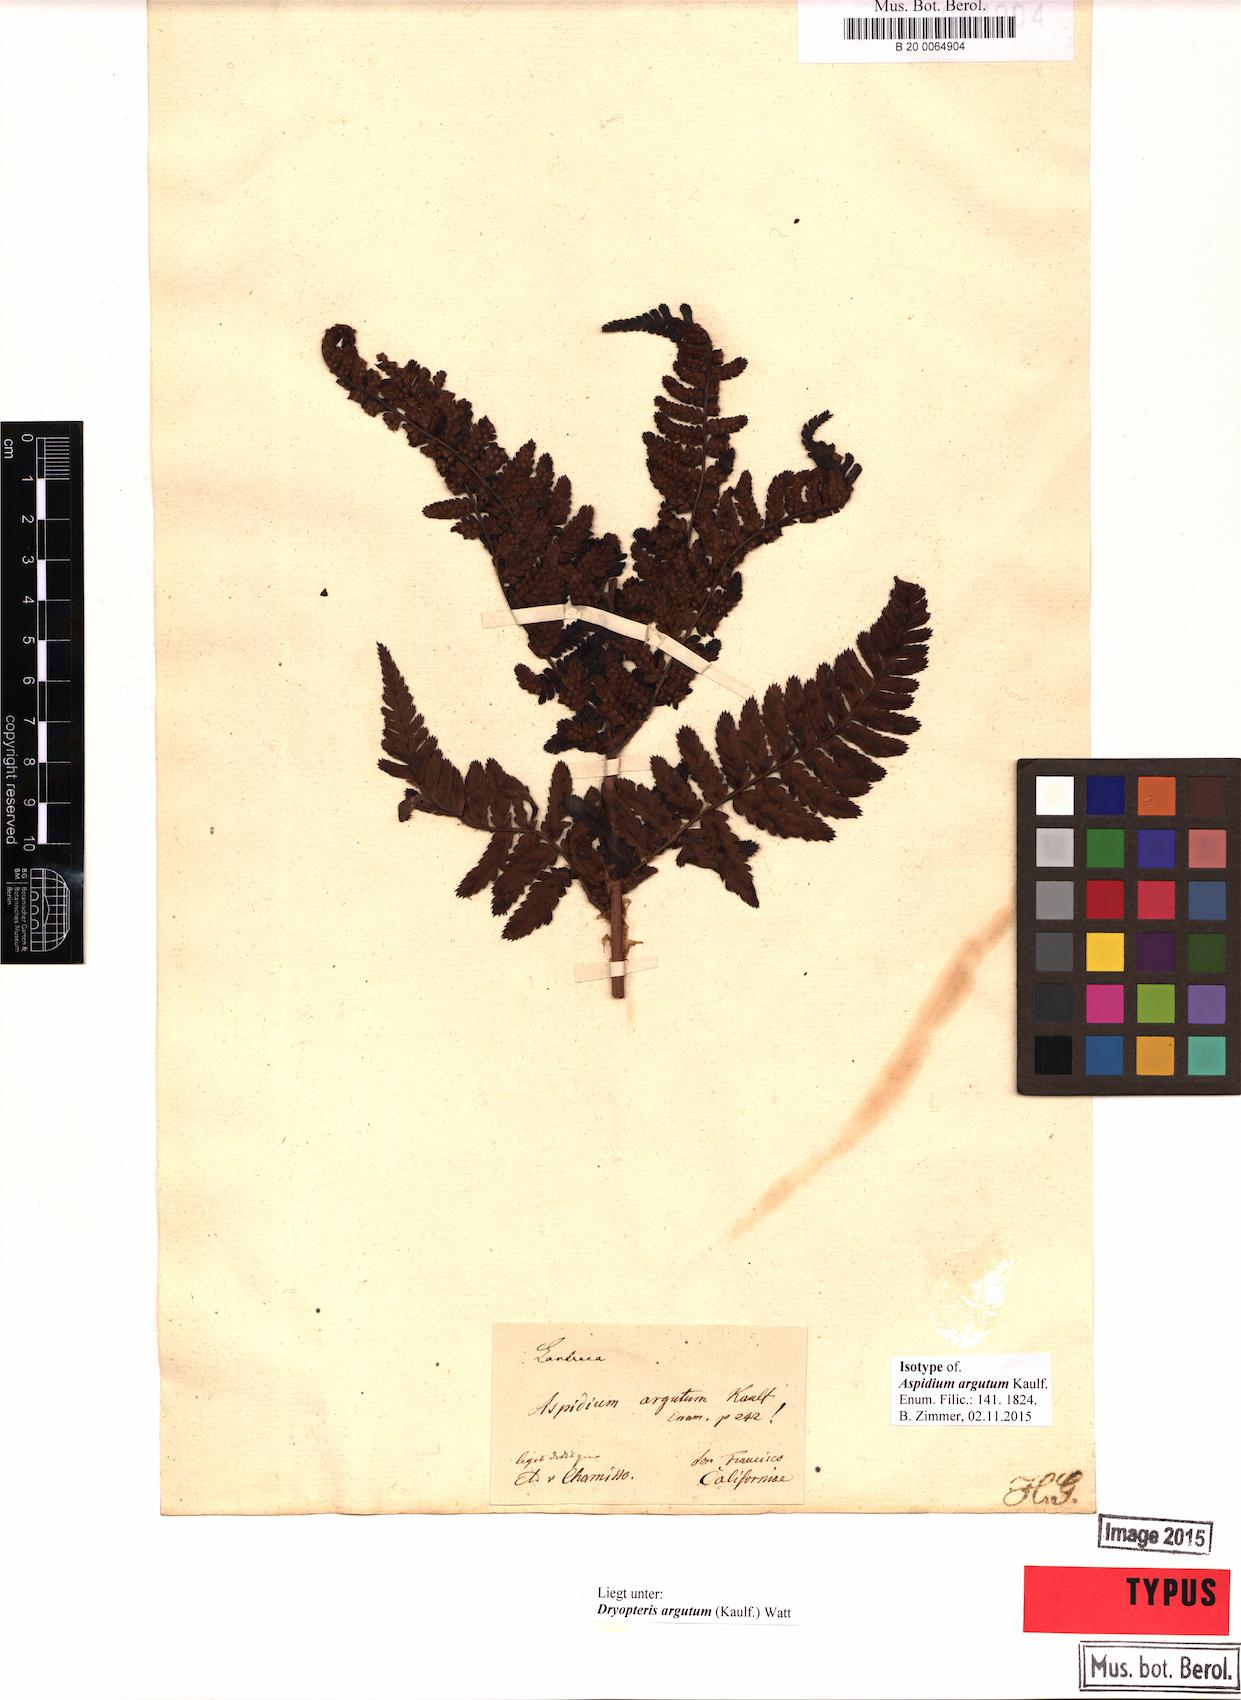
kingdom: Plantae
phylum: Tracheophyta
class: Polypodiopsida
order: Polypodiales
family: Dryopteridaceae
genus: Dryopteris
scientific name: Dryopteris arguta
